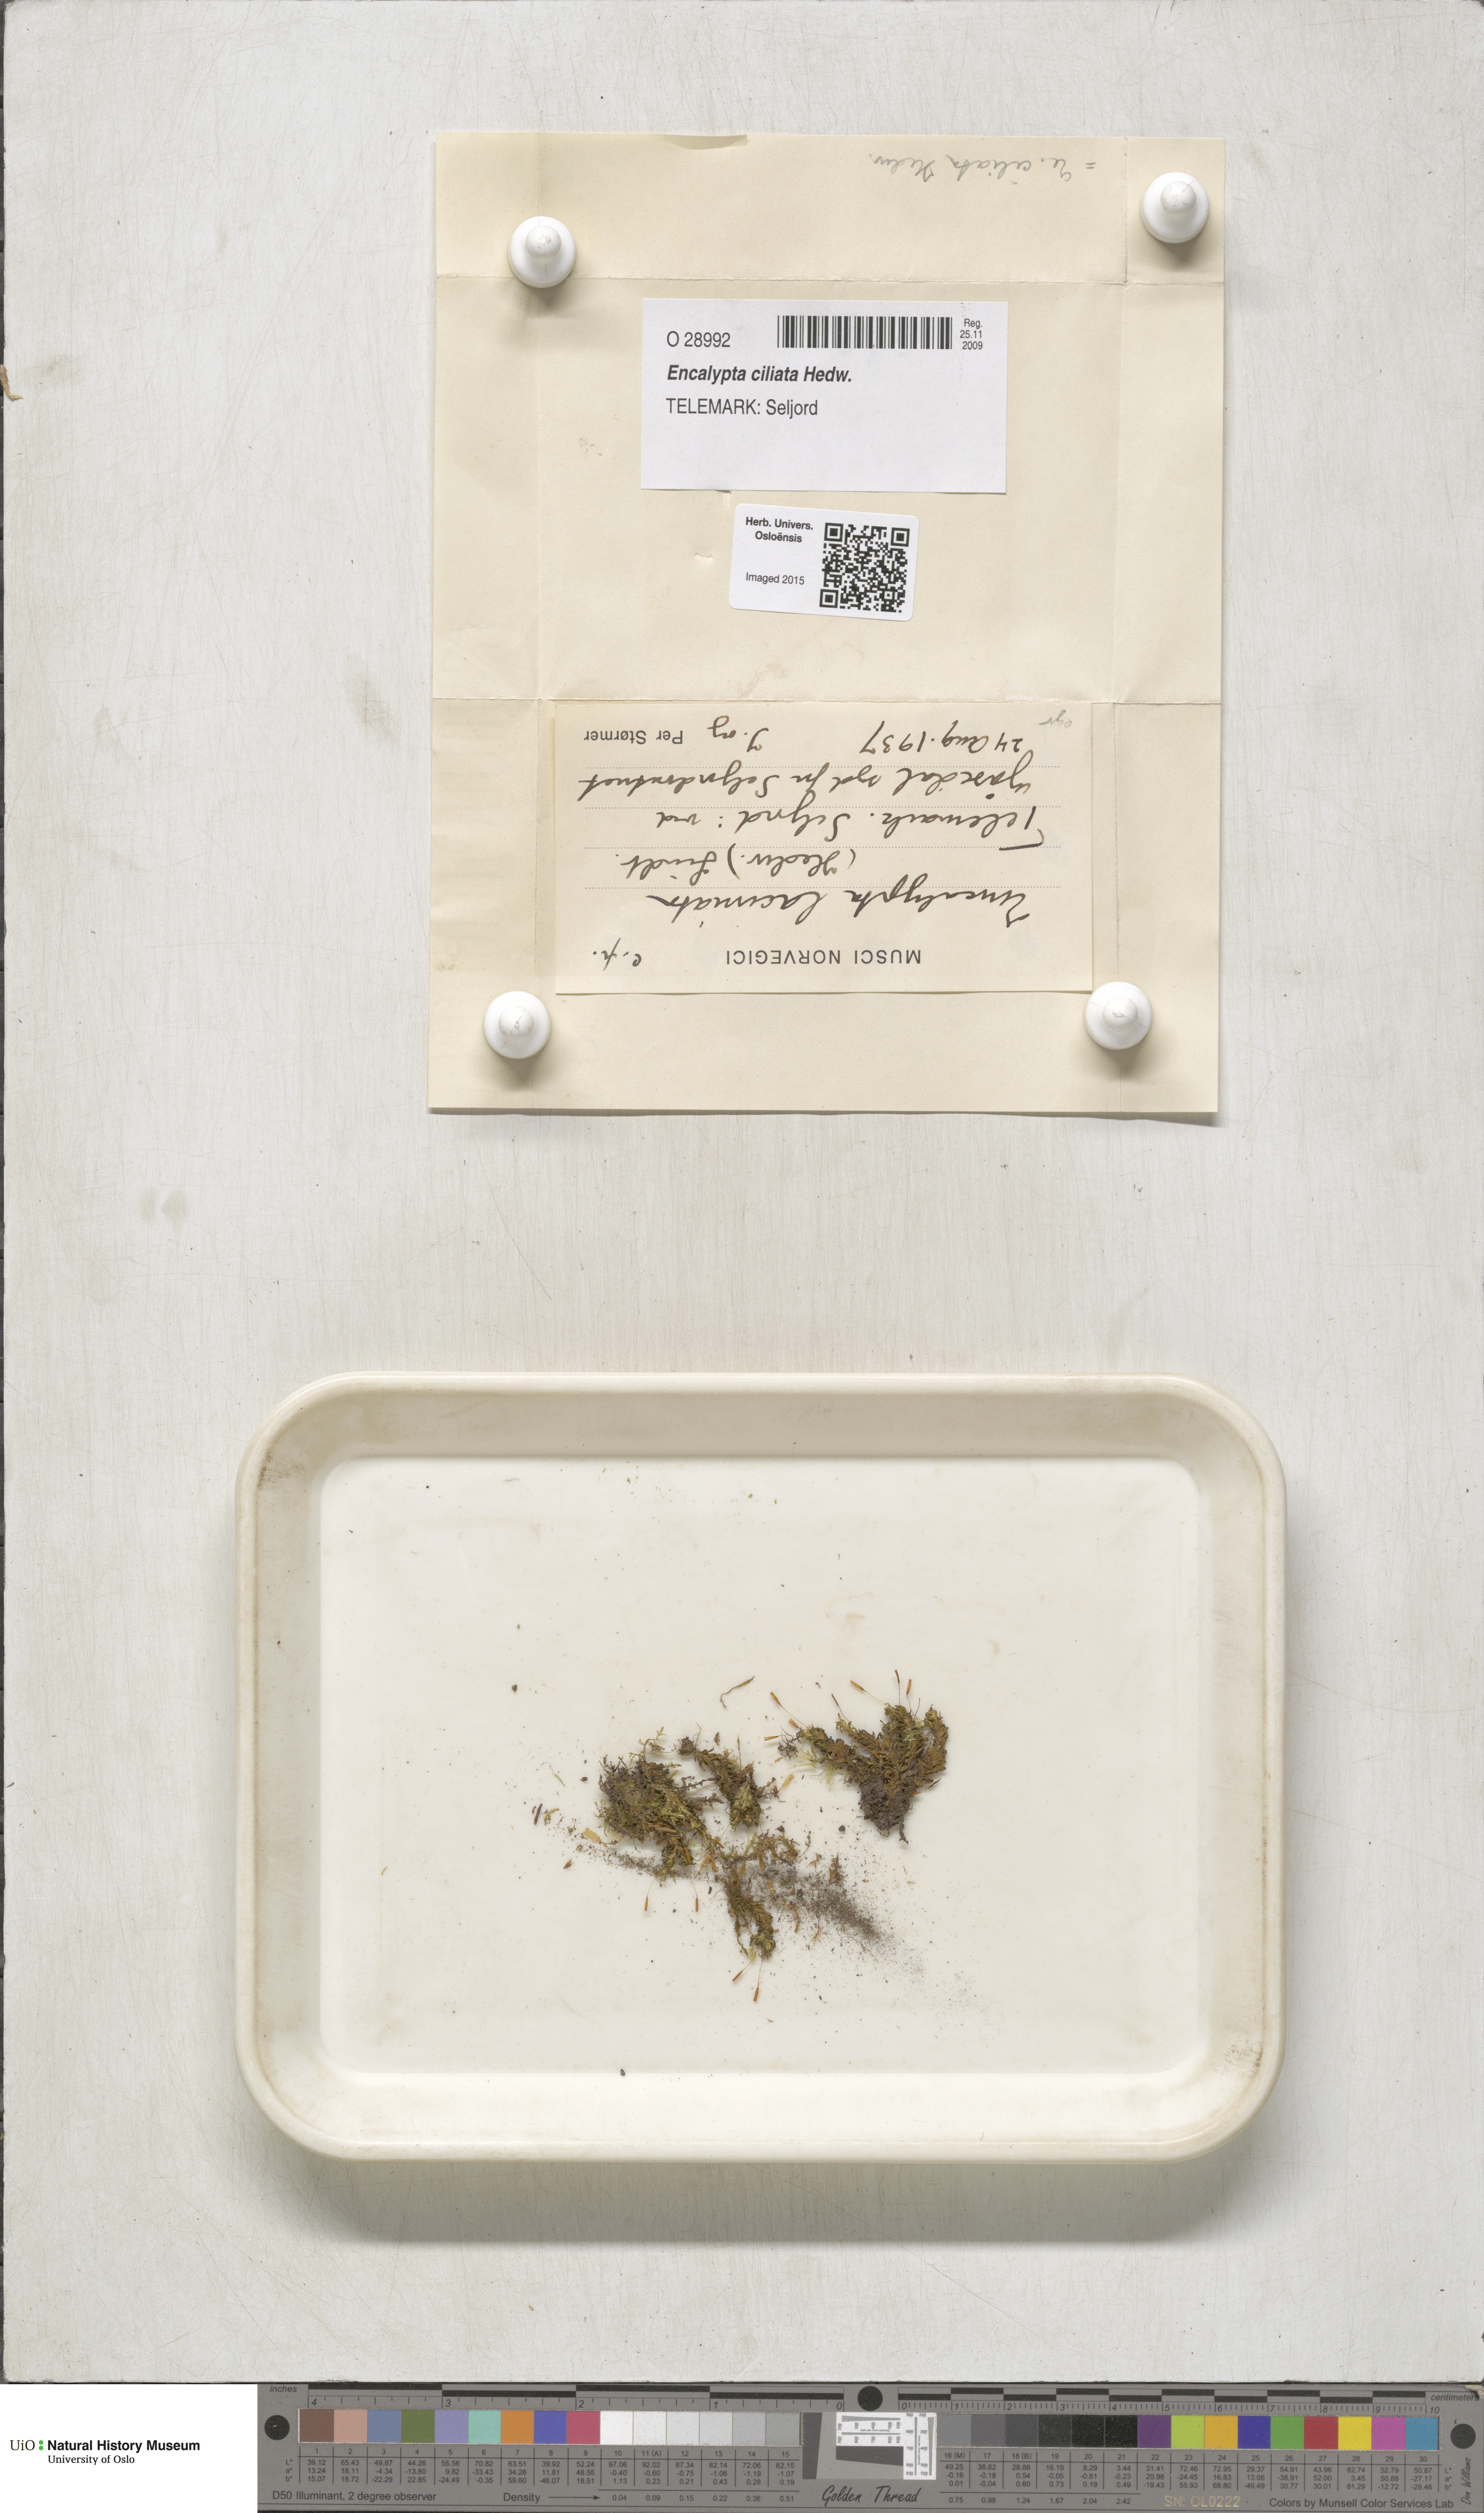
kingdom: Plantae
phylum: Bryophyta
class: Bryopsida
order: Encalyptales
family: Encalyptaceae
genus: Encalypta
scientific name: Encalypta ciliata
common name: Fringed extinguisher-moss
